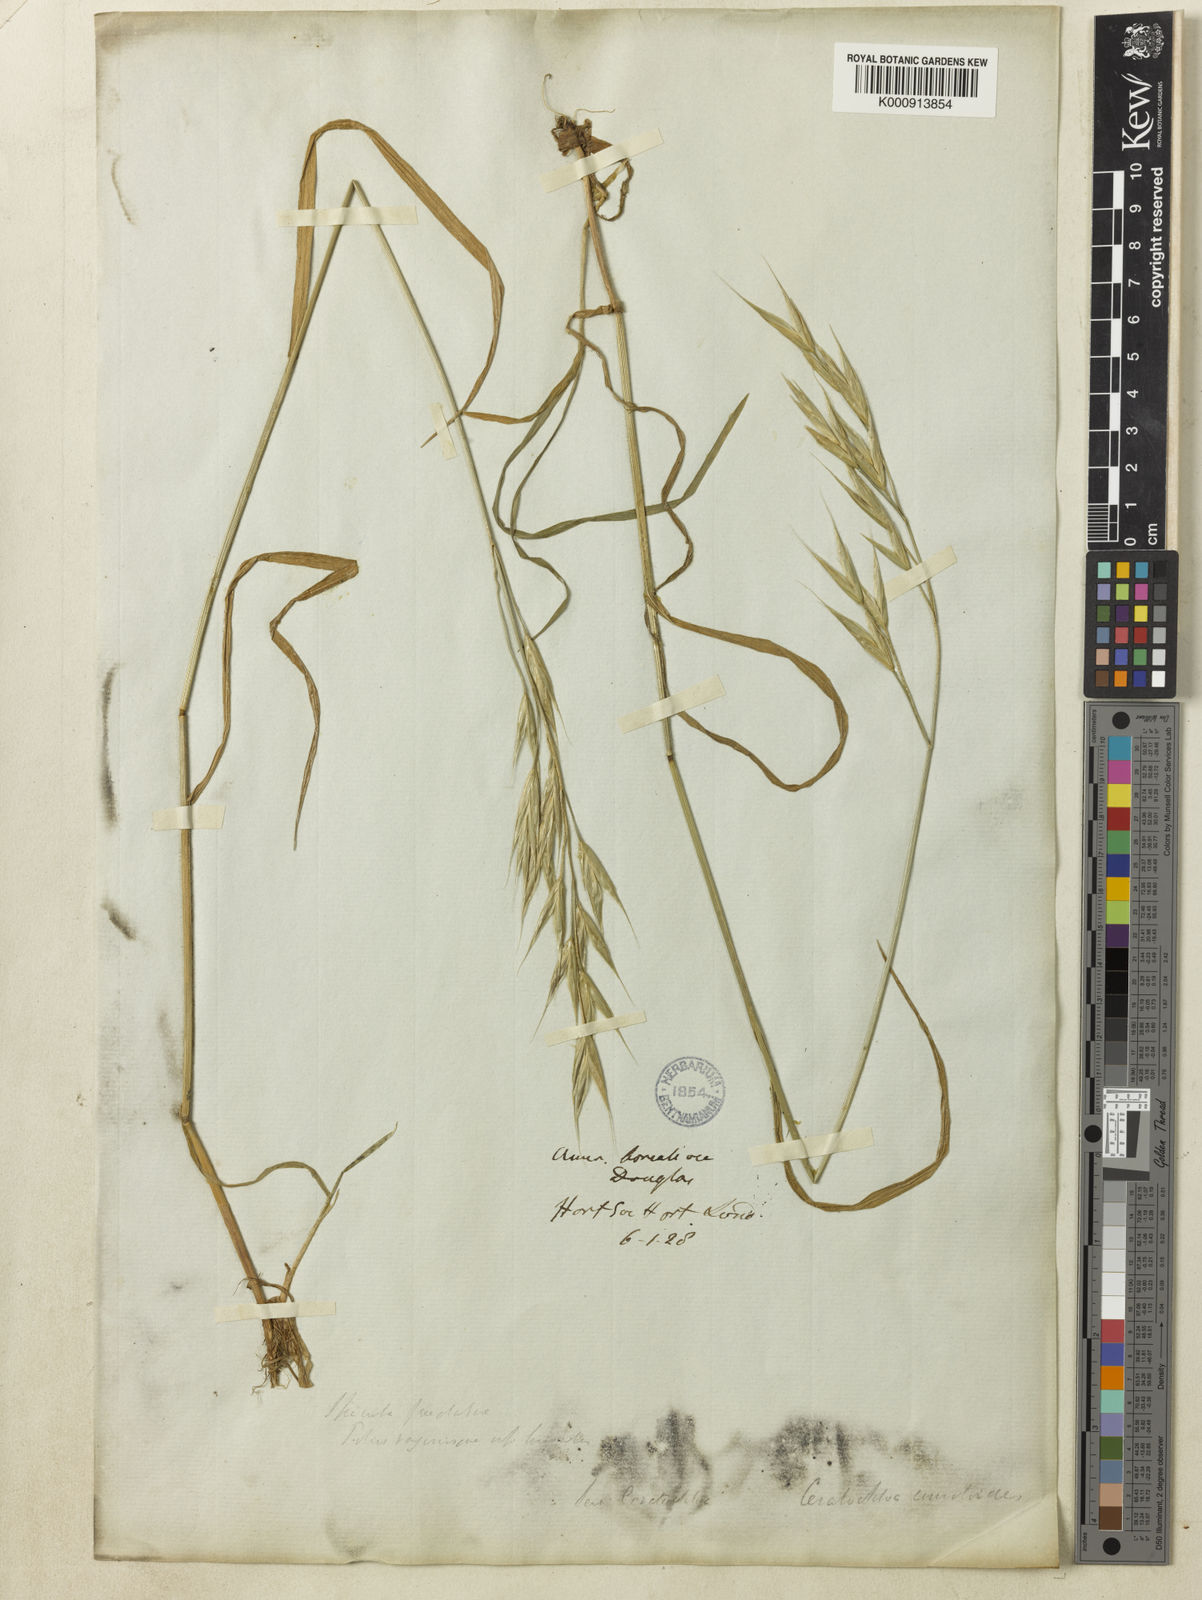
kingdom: Plantae
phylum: Tracheophyta
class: Liliopsida
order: Poales
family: Poaceae
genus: Bromus
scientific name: Bromus carinatus
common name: Mountain brome
